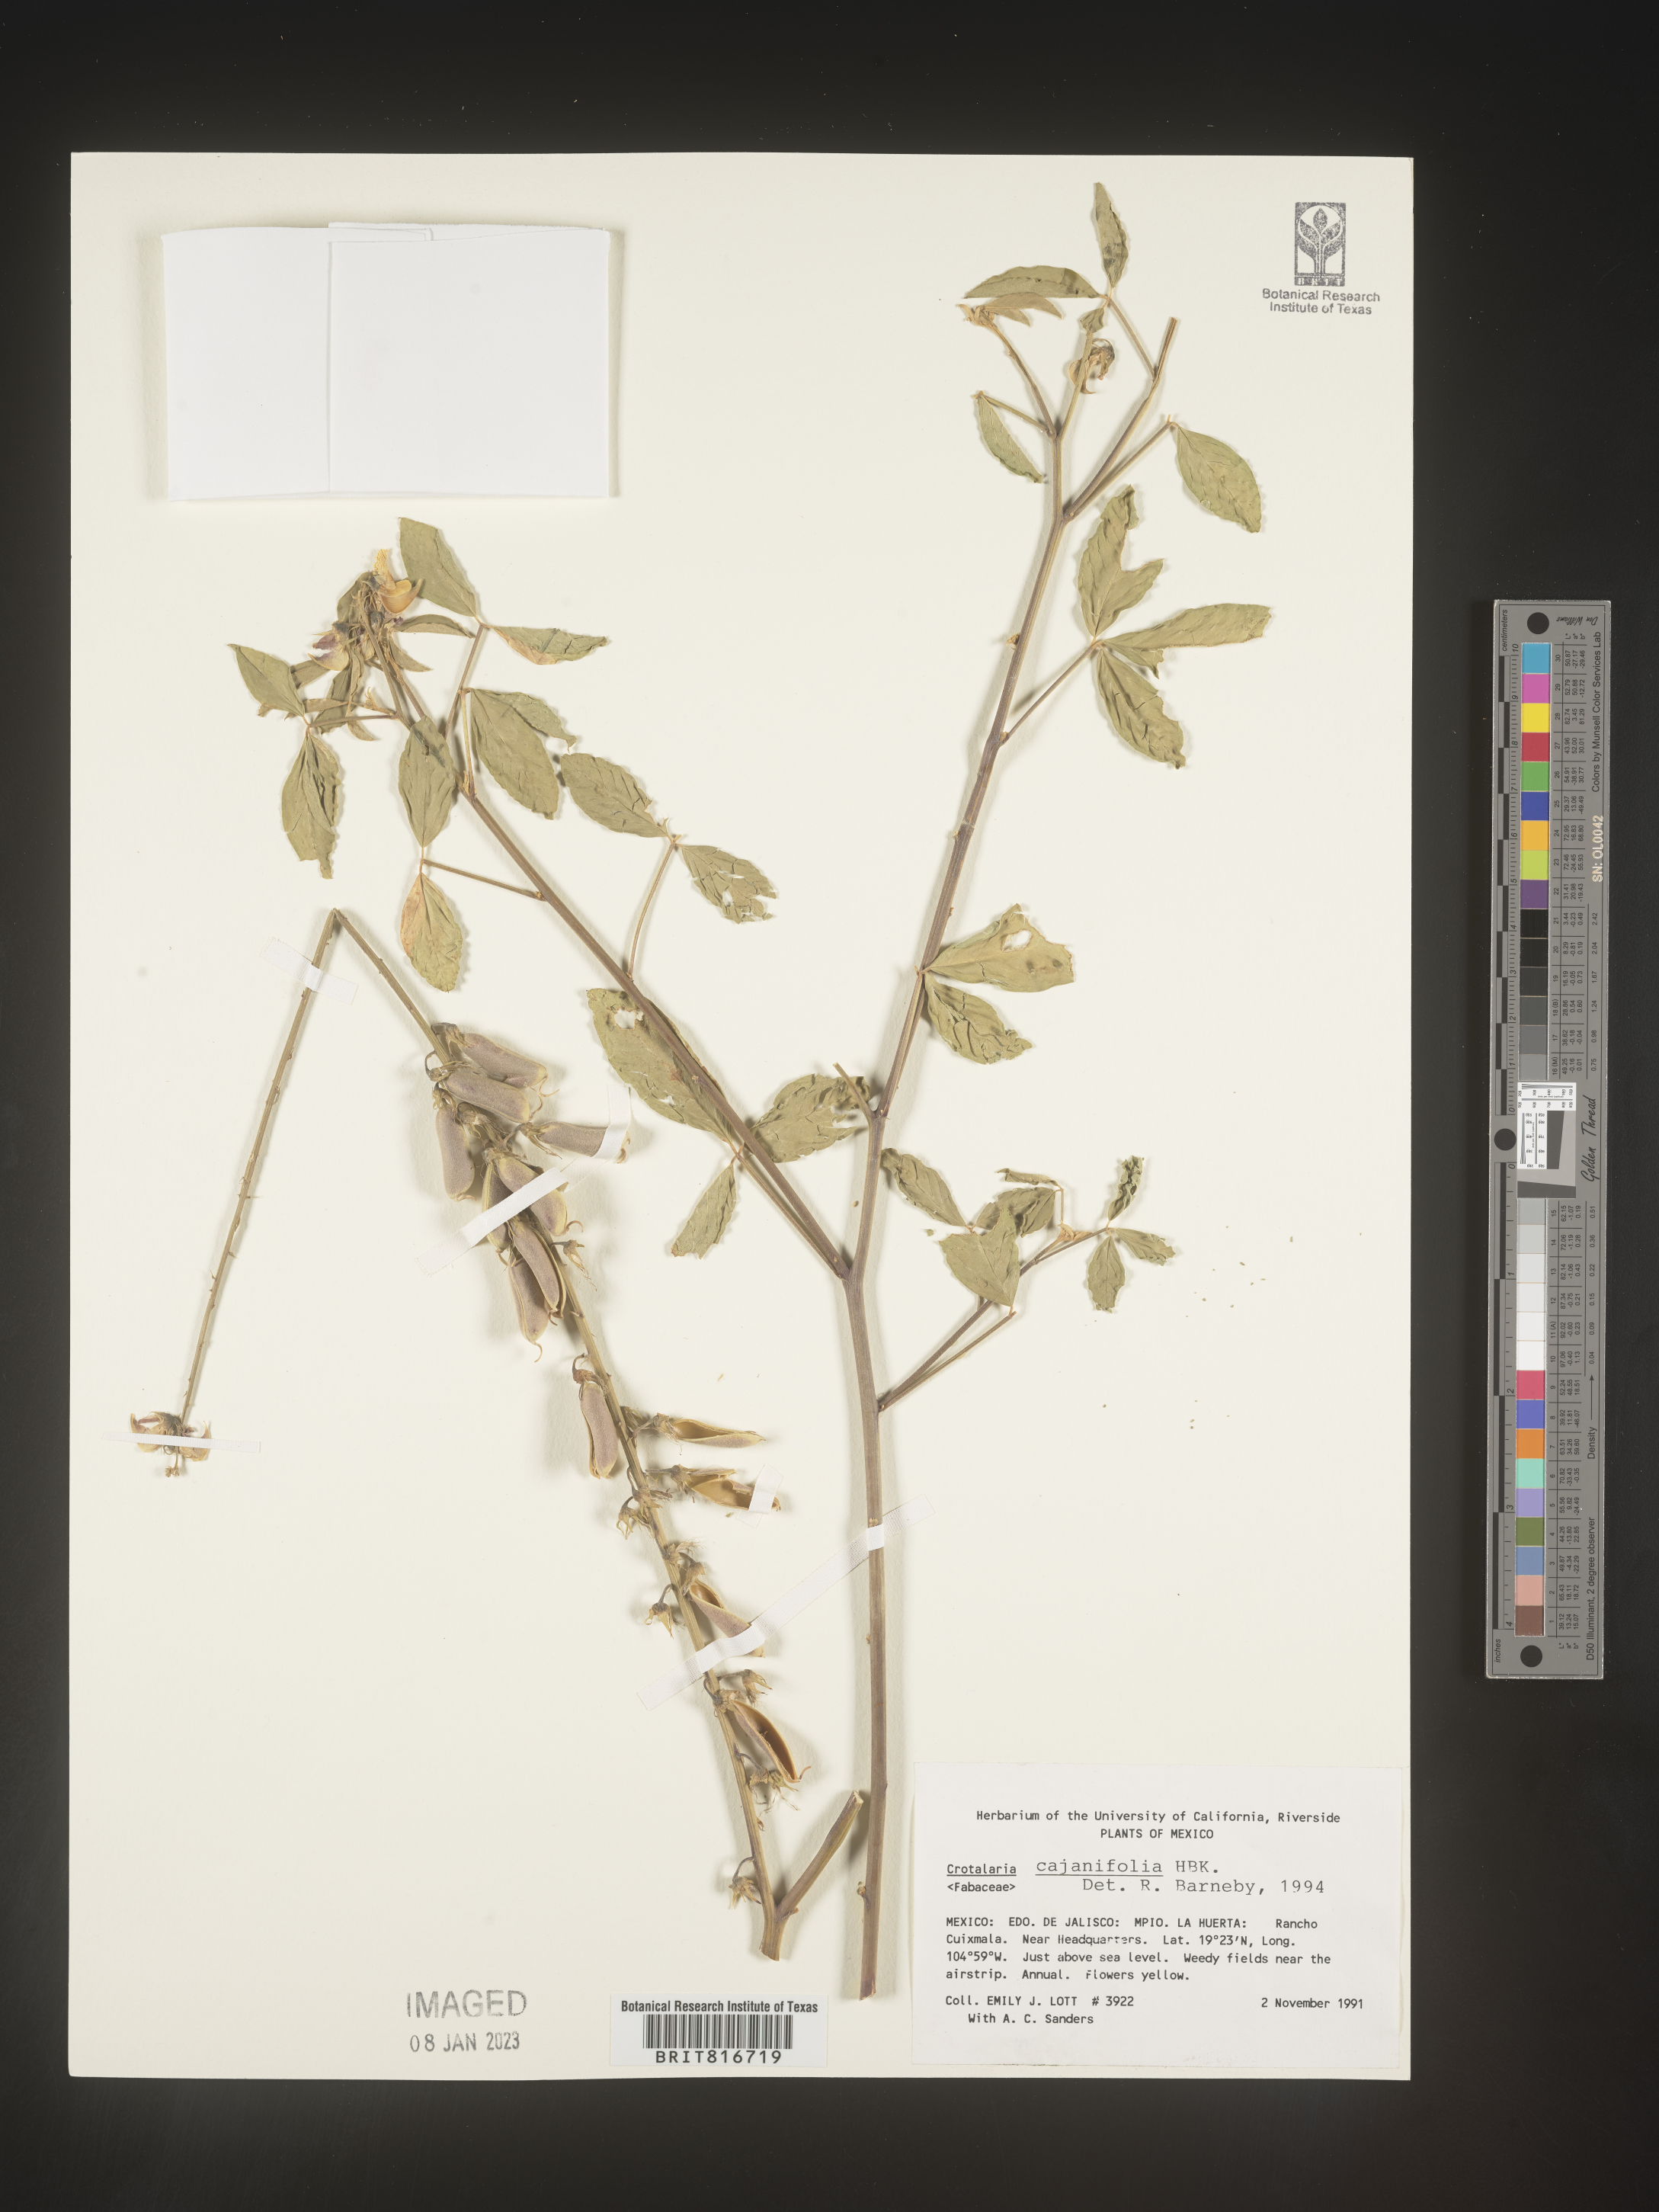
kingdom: Plantae
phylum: Tracheophyta
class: Magnoliopsida
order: Fabales
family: Fabaceae
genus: Crotalaria
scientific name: Crotalaria
